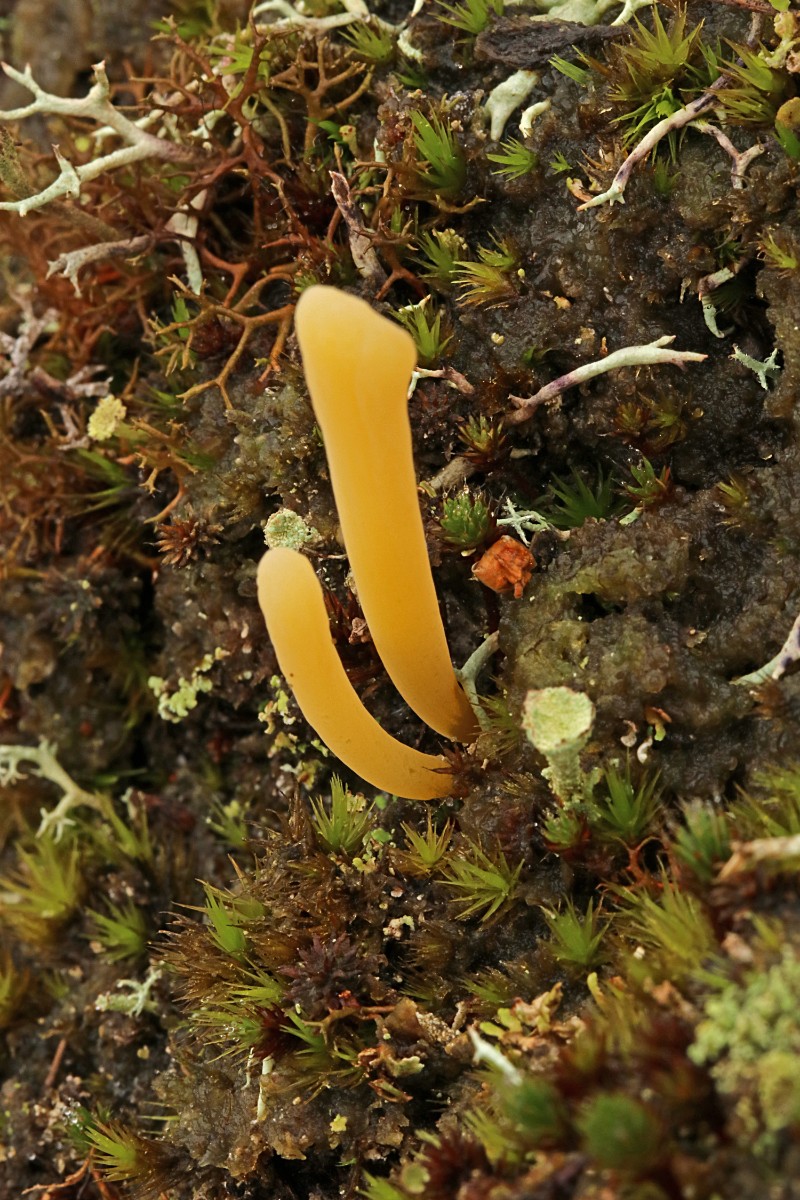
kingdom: Fungi
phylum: Basidiomycota
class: Agaricomycetes
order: Agaricales
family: Clavariaceae
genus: Clavaria
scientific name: Clavaria argillacea
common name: lerfarvet køllesvamp
